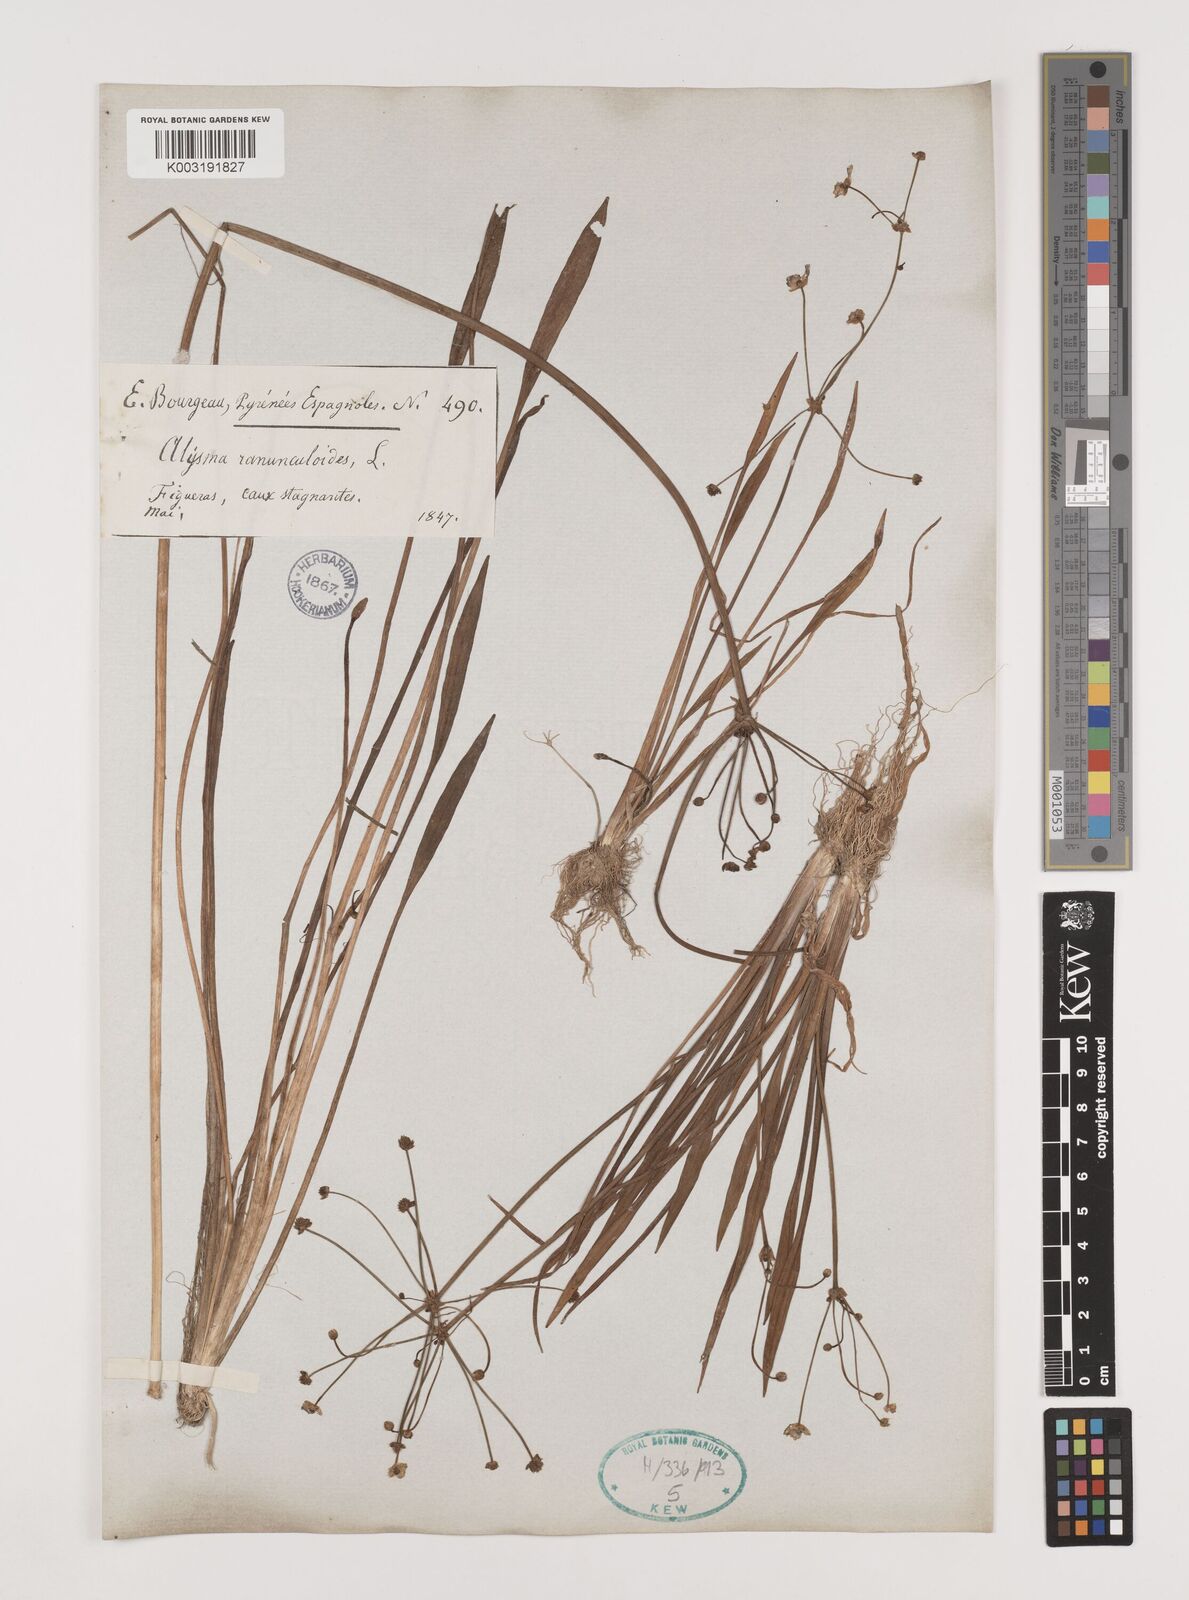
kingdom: Plantae
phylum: Tracheophyta
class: Liliopsida
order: Alismatales
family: Alismataceae
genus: Baldellia
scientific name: Baldellia ranunculoides
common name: Lesser water-plantain
